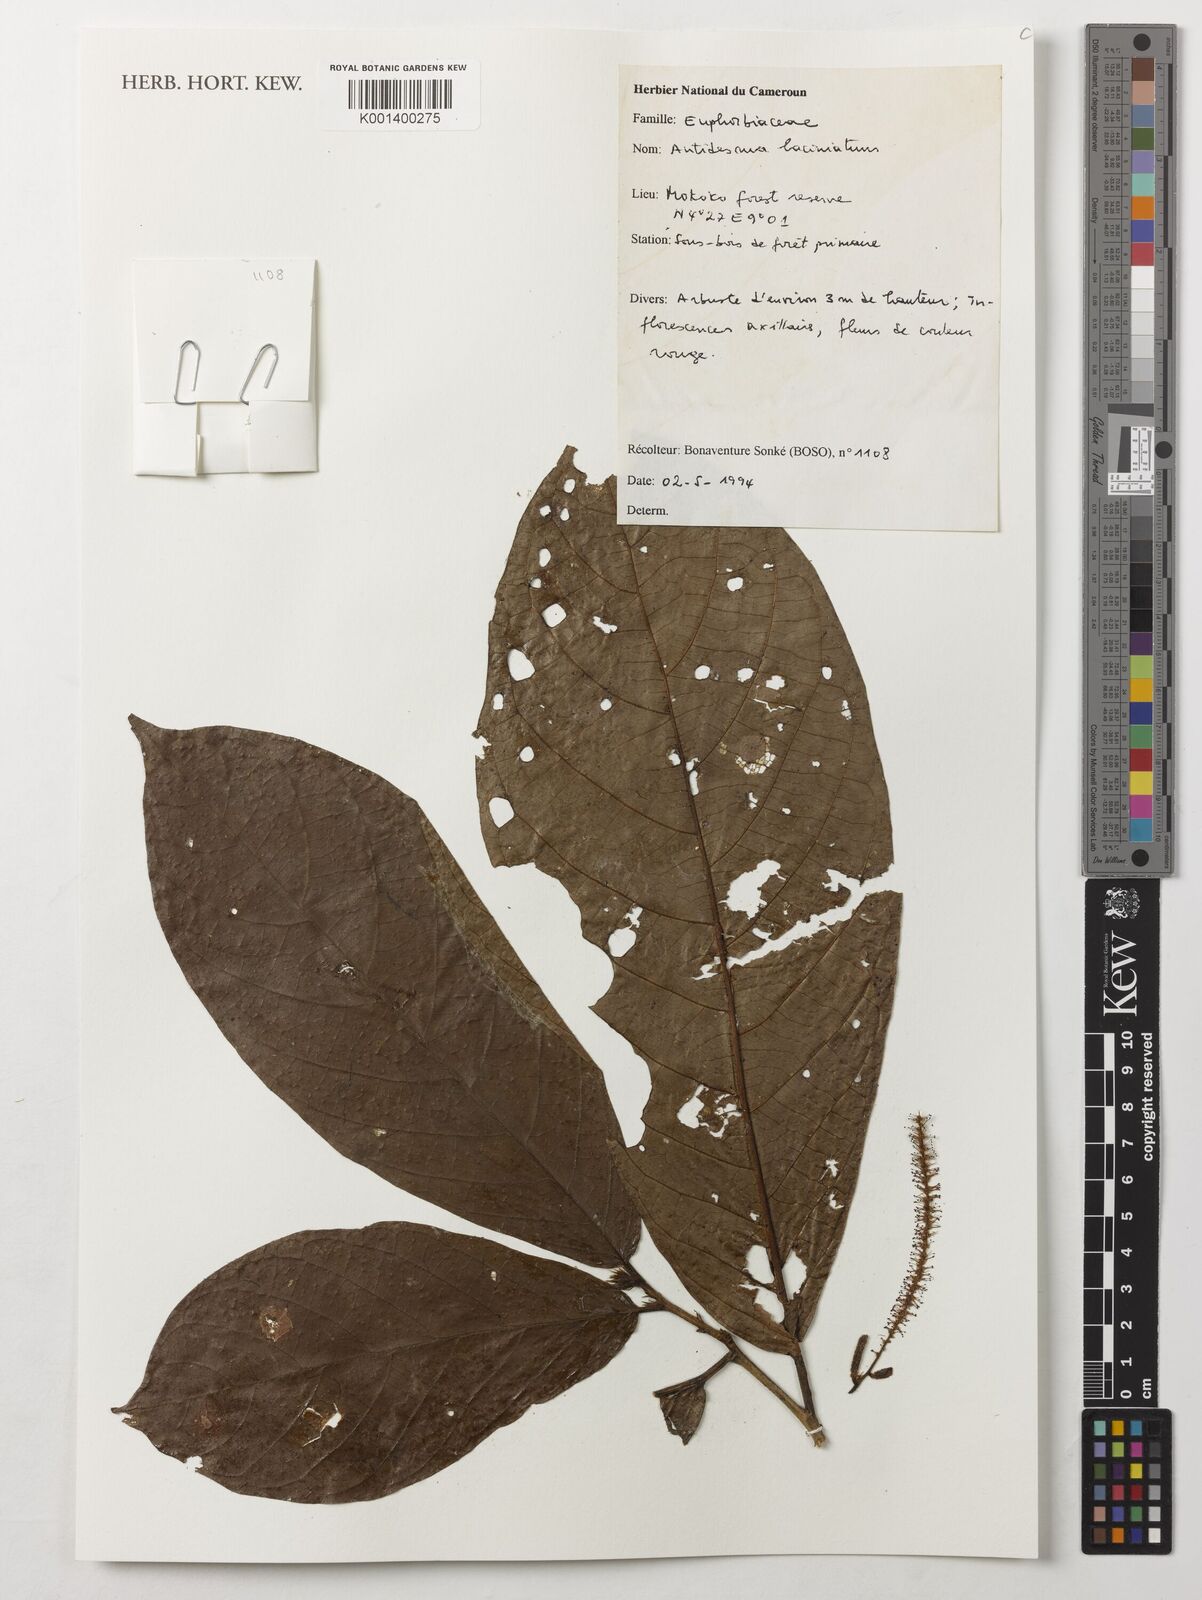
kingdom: Plantae
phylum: Tracheophyta
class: Magnoliopsida
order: Malpighiales
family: Phyllanthaceae
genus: Antidesma
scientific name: Antidesma laciniatum
